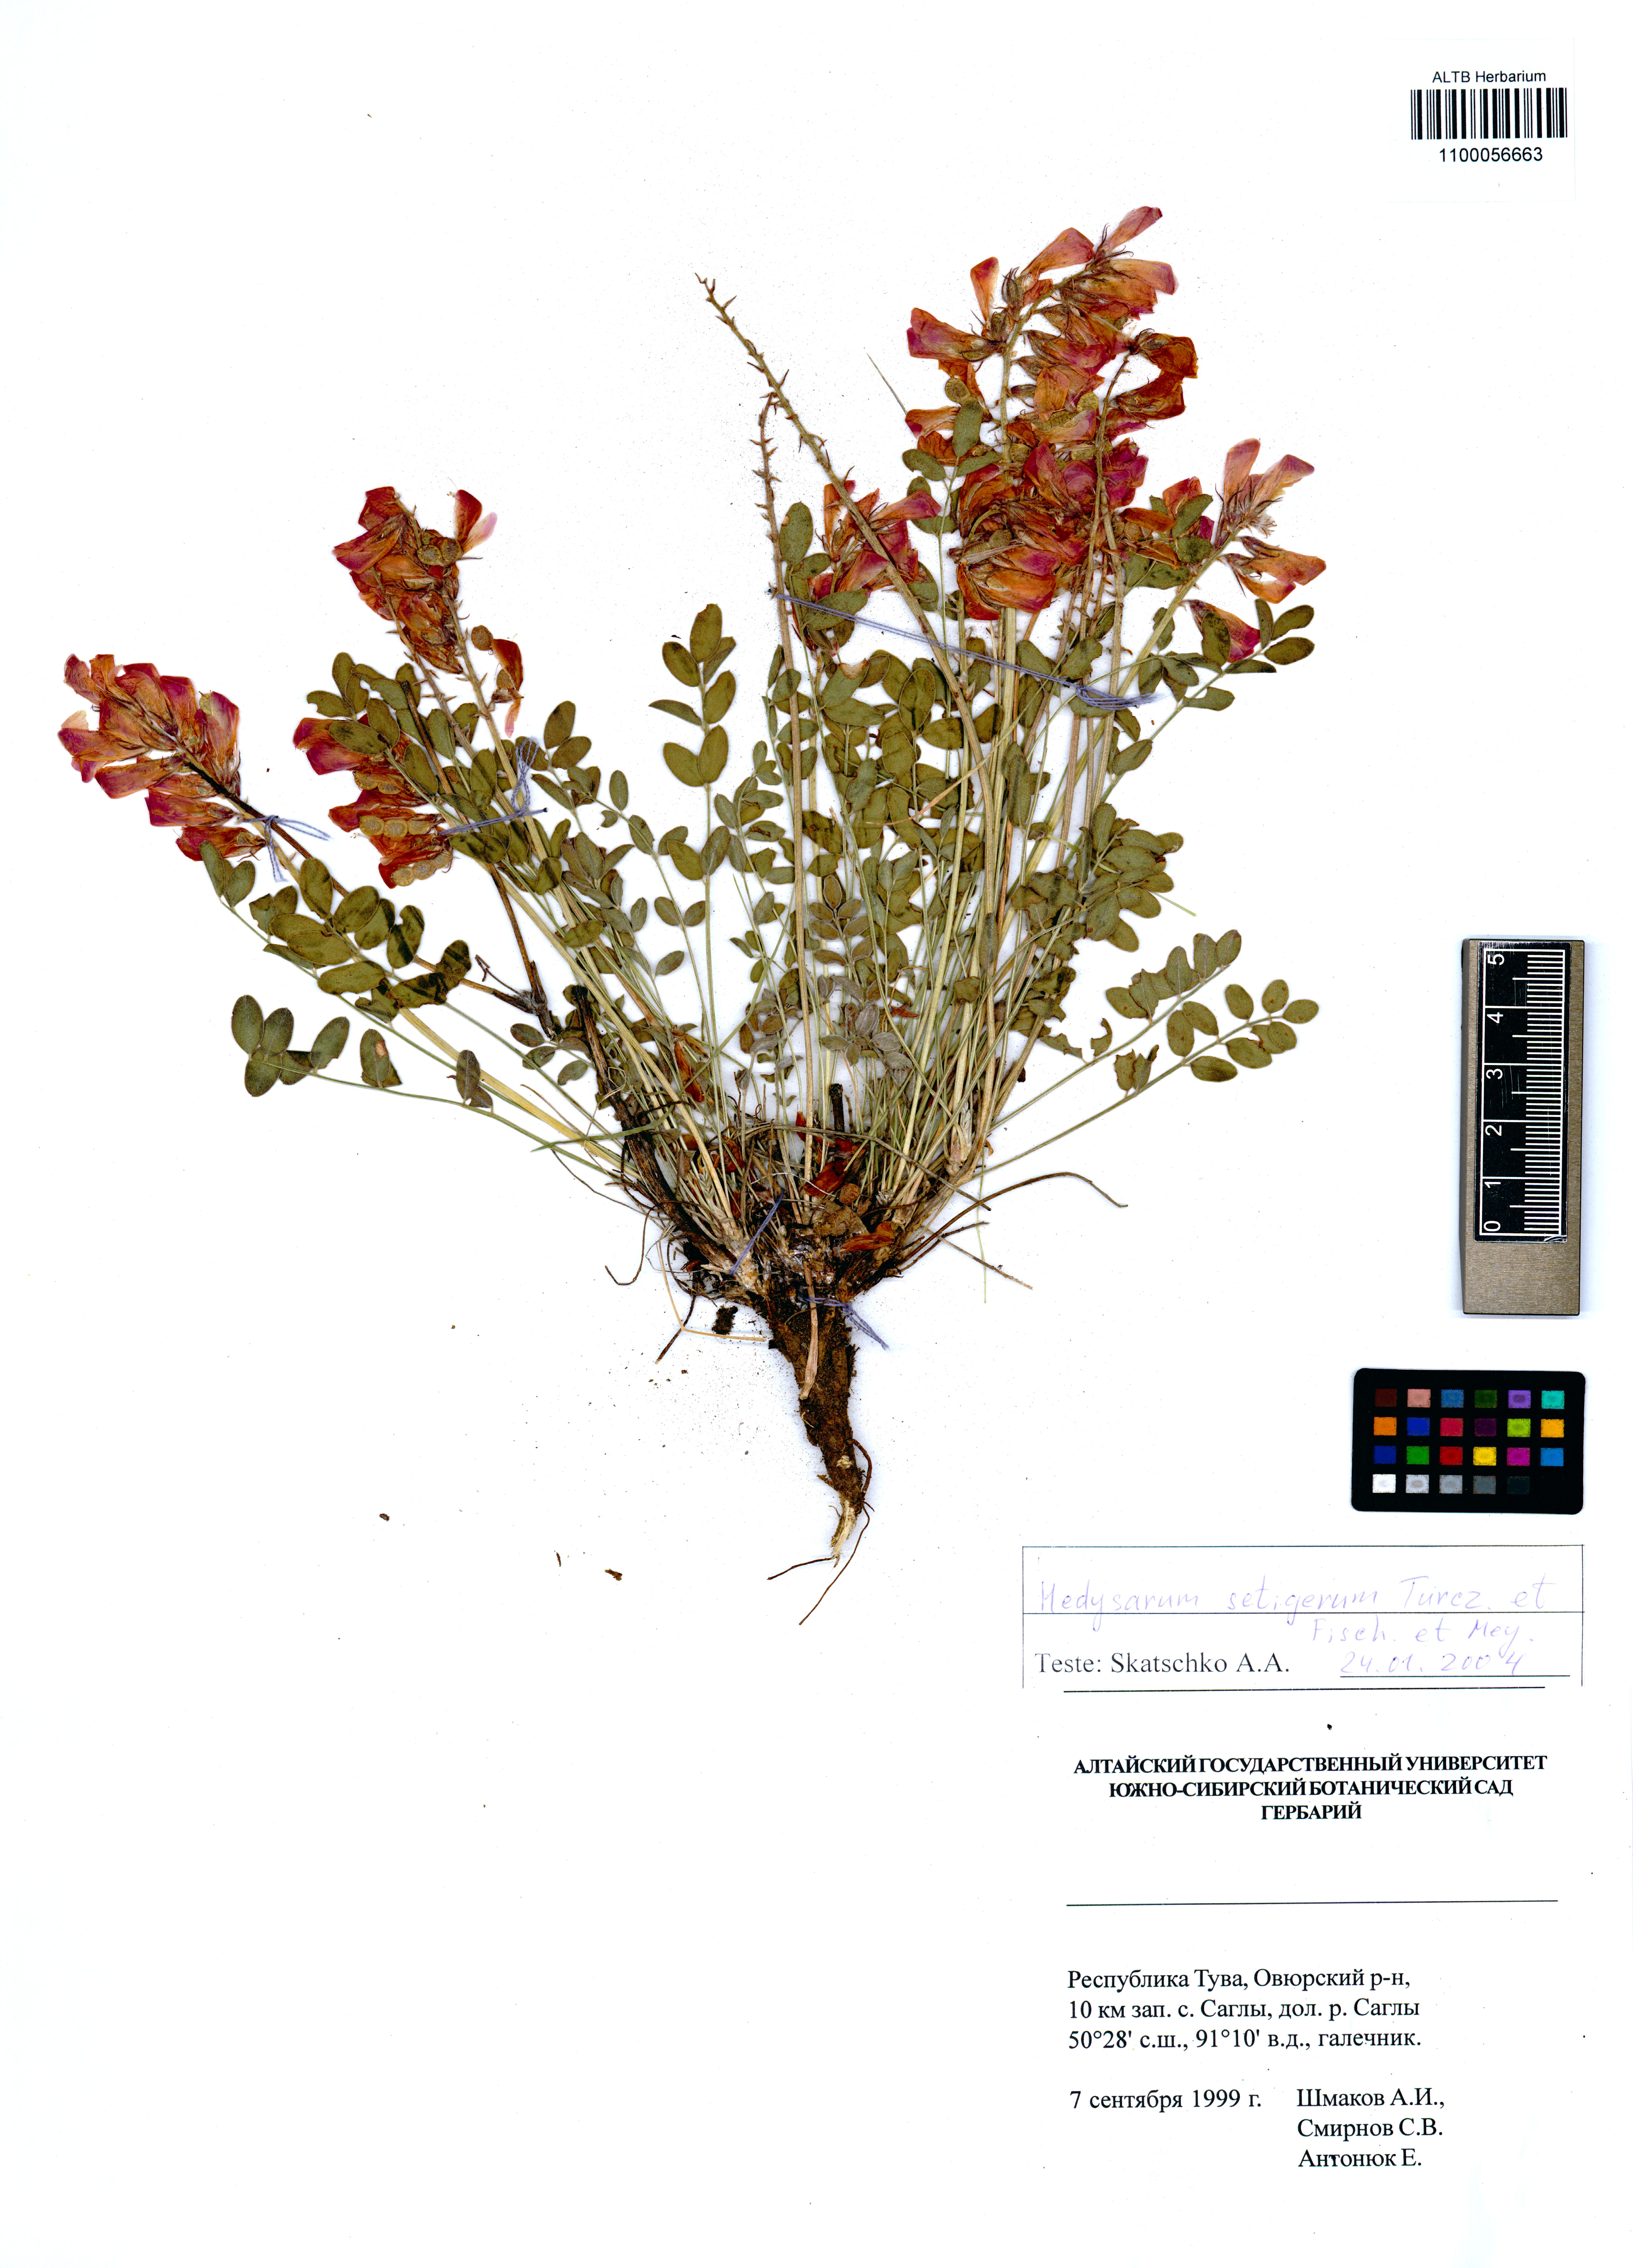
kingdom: Plantae
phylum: Tracheophyta
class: Magnoliopsida
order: Fabales
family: Fabaceae
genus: Hedysarum
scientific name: Hedysarum setigerum
